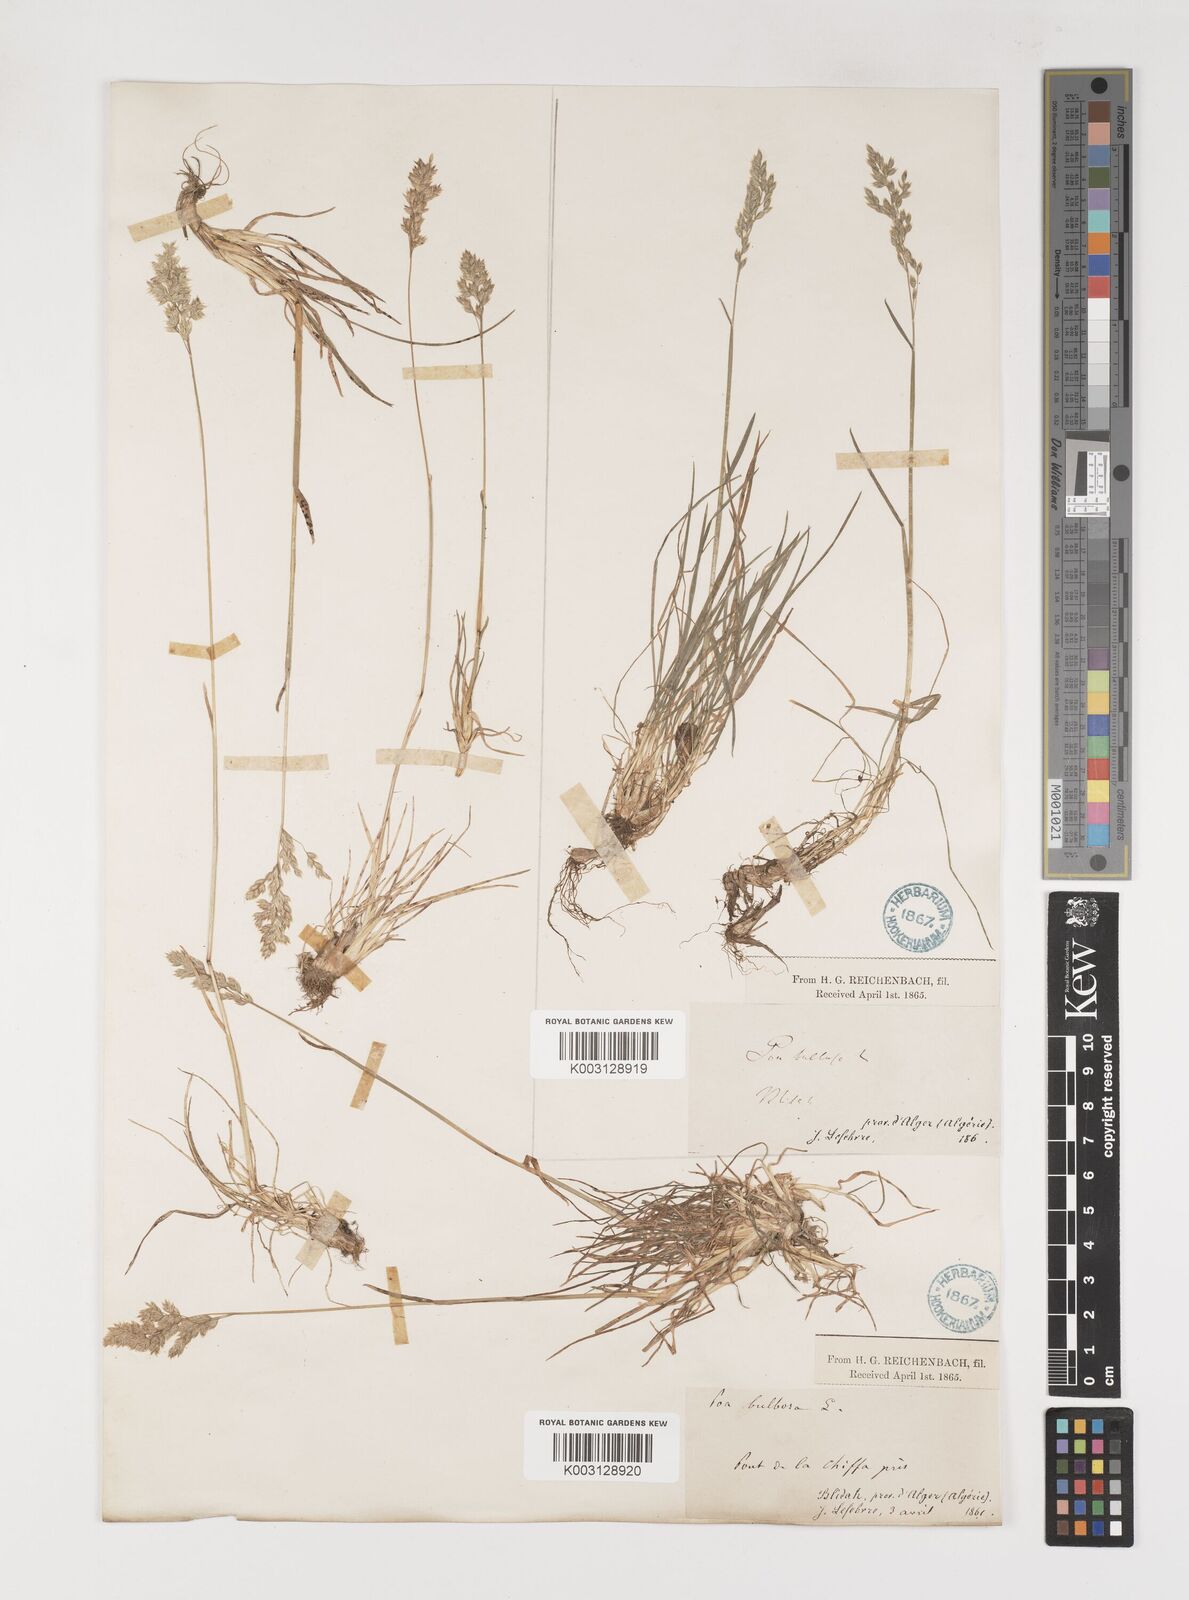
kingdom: Plantae
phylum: Tracheophyta
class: Liliopsida
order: Poales
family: Poaceae
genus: Poa
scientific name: Poa bulbosa
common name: Bulbous bluegrass
